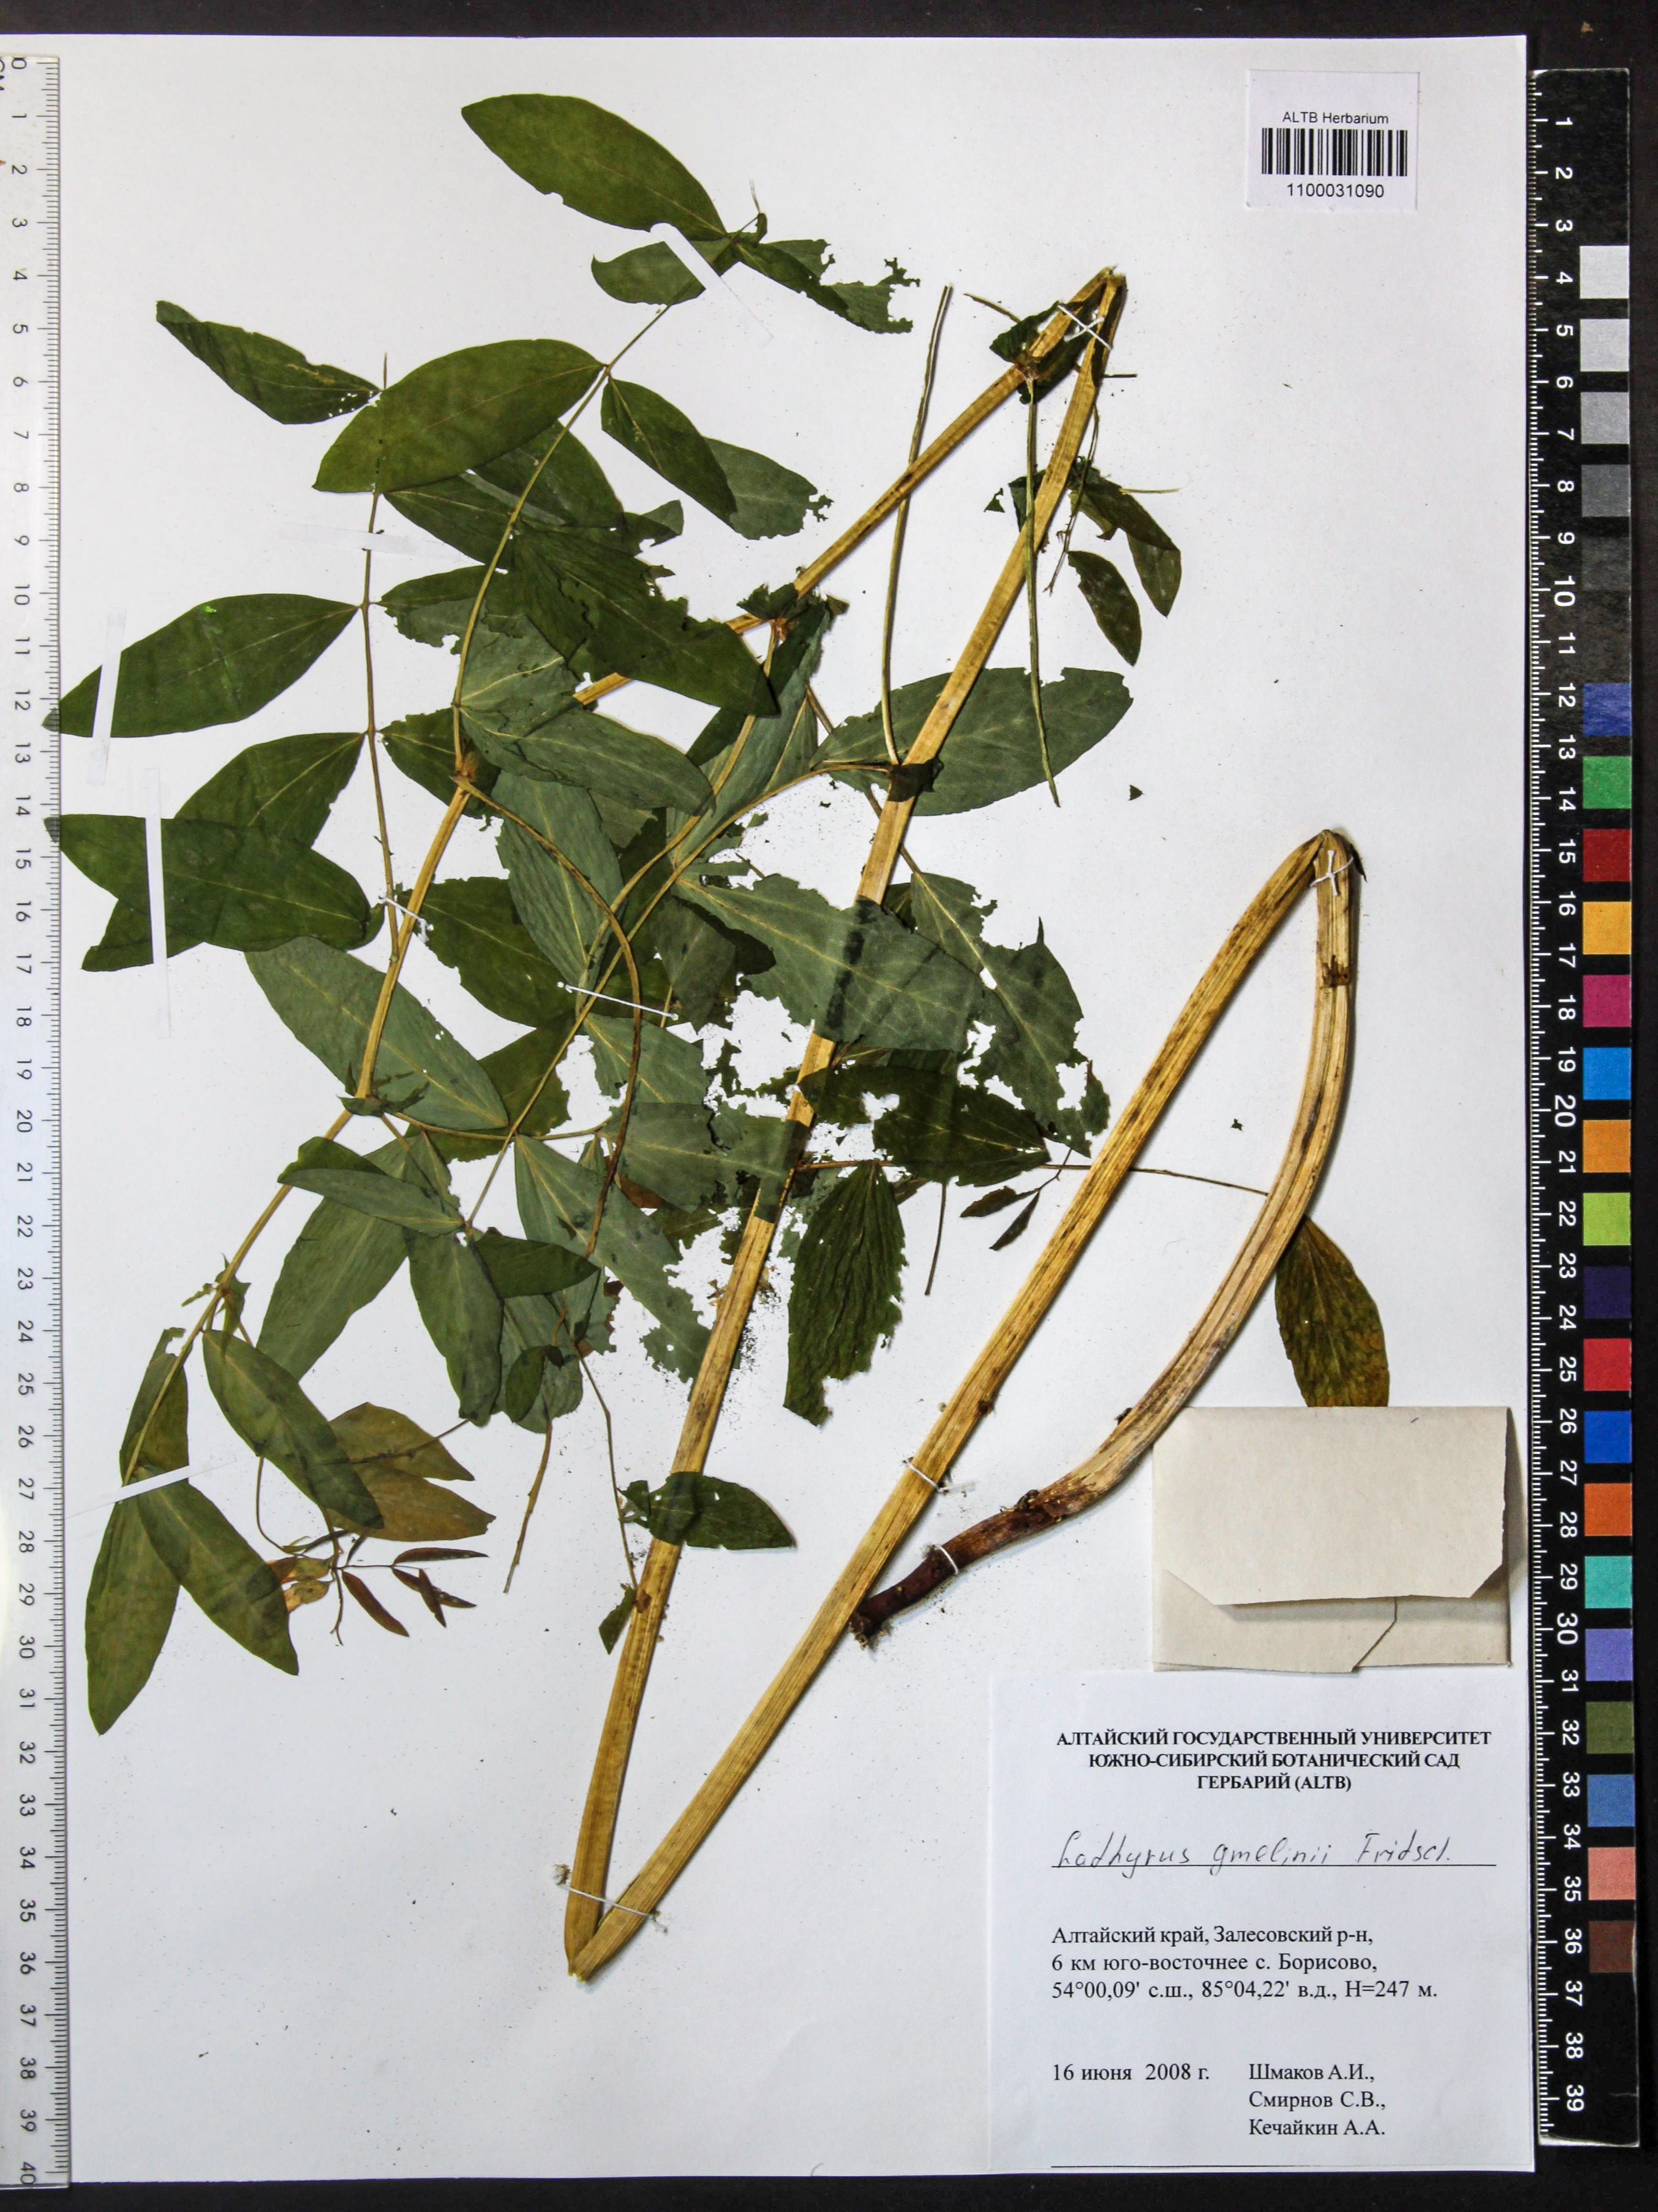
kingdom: Plantae
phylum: Tracheophyta
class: Magnoliopsida
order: Fabales
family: Fabaceae
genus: Lathyrus
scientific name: Lathyrus gmelinii
